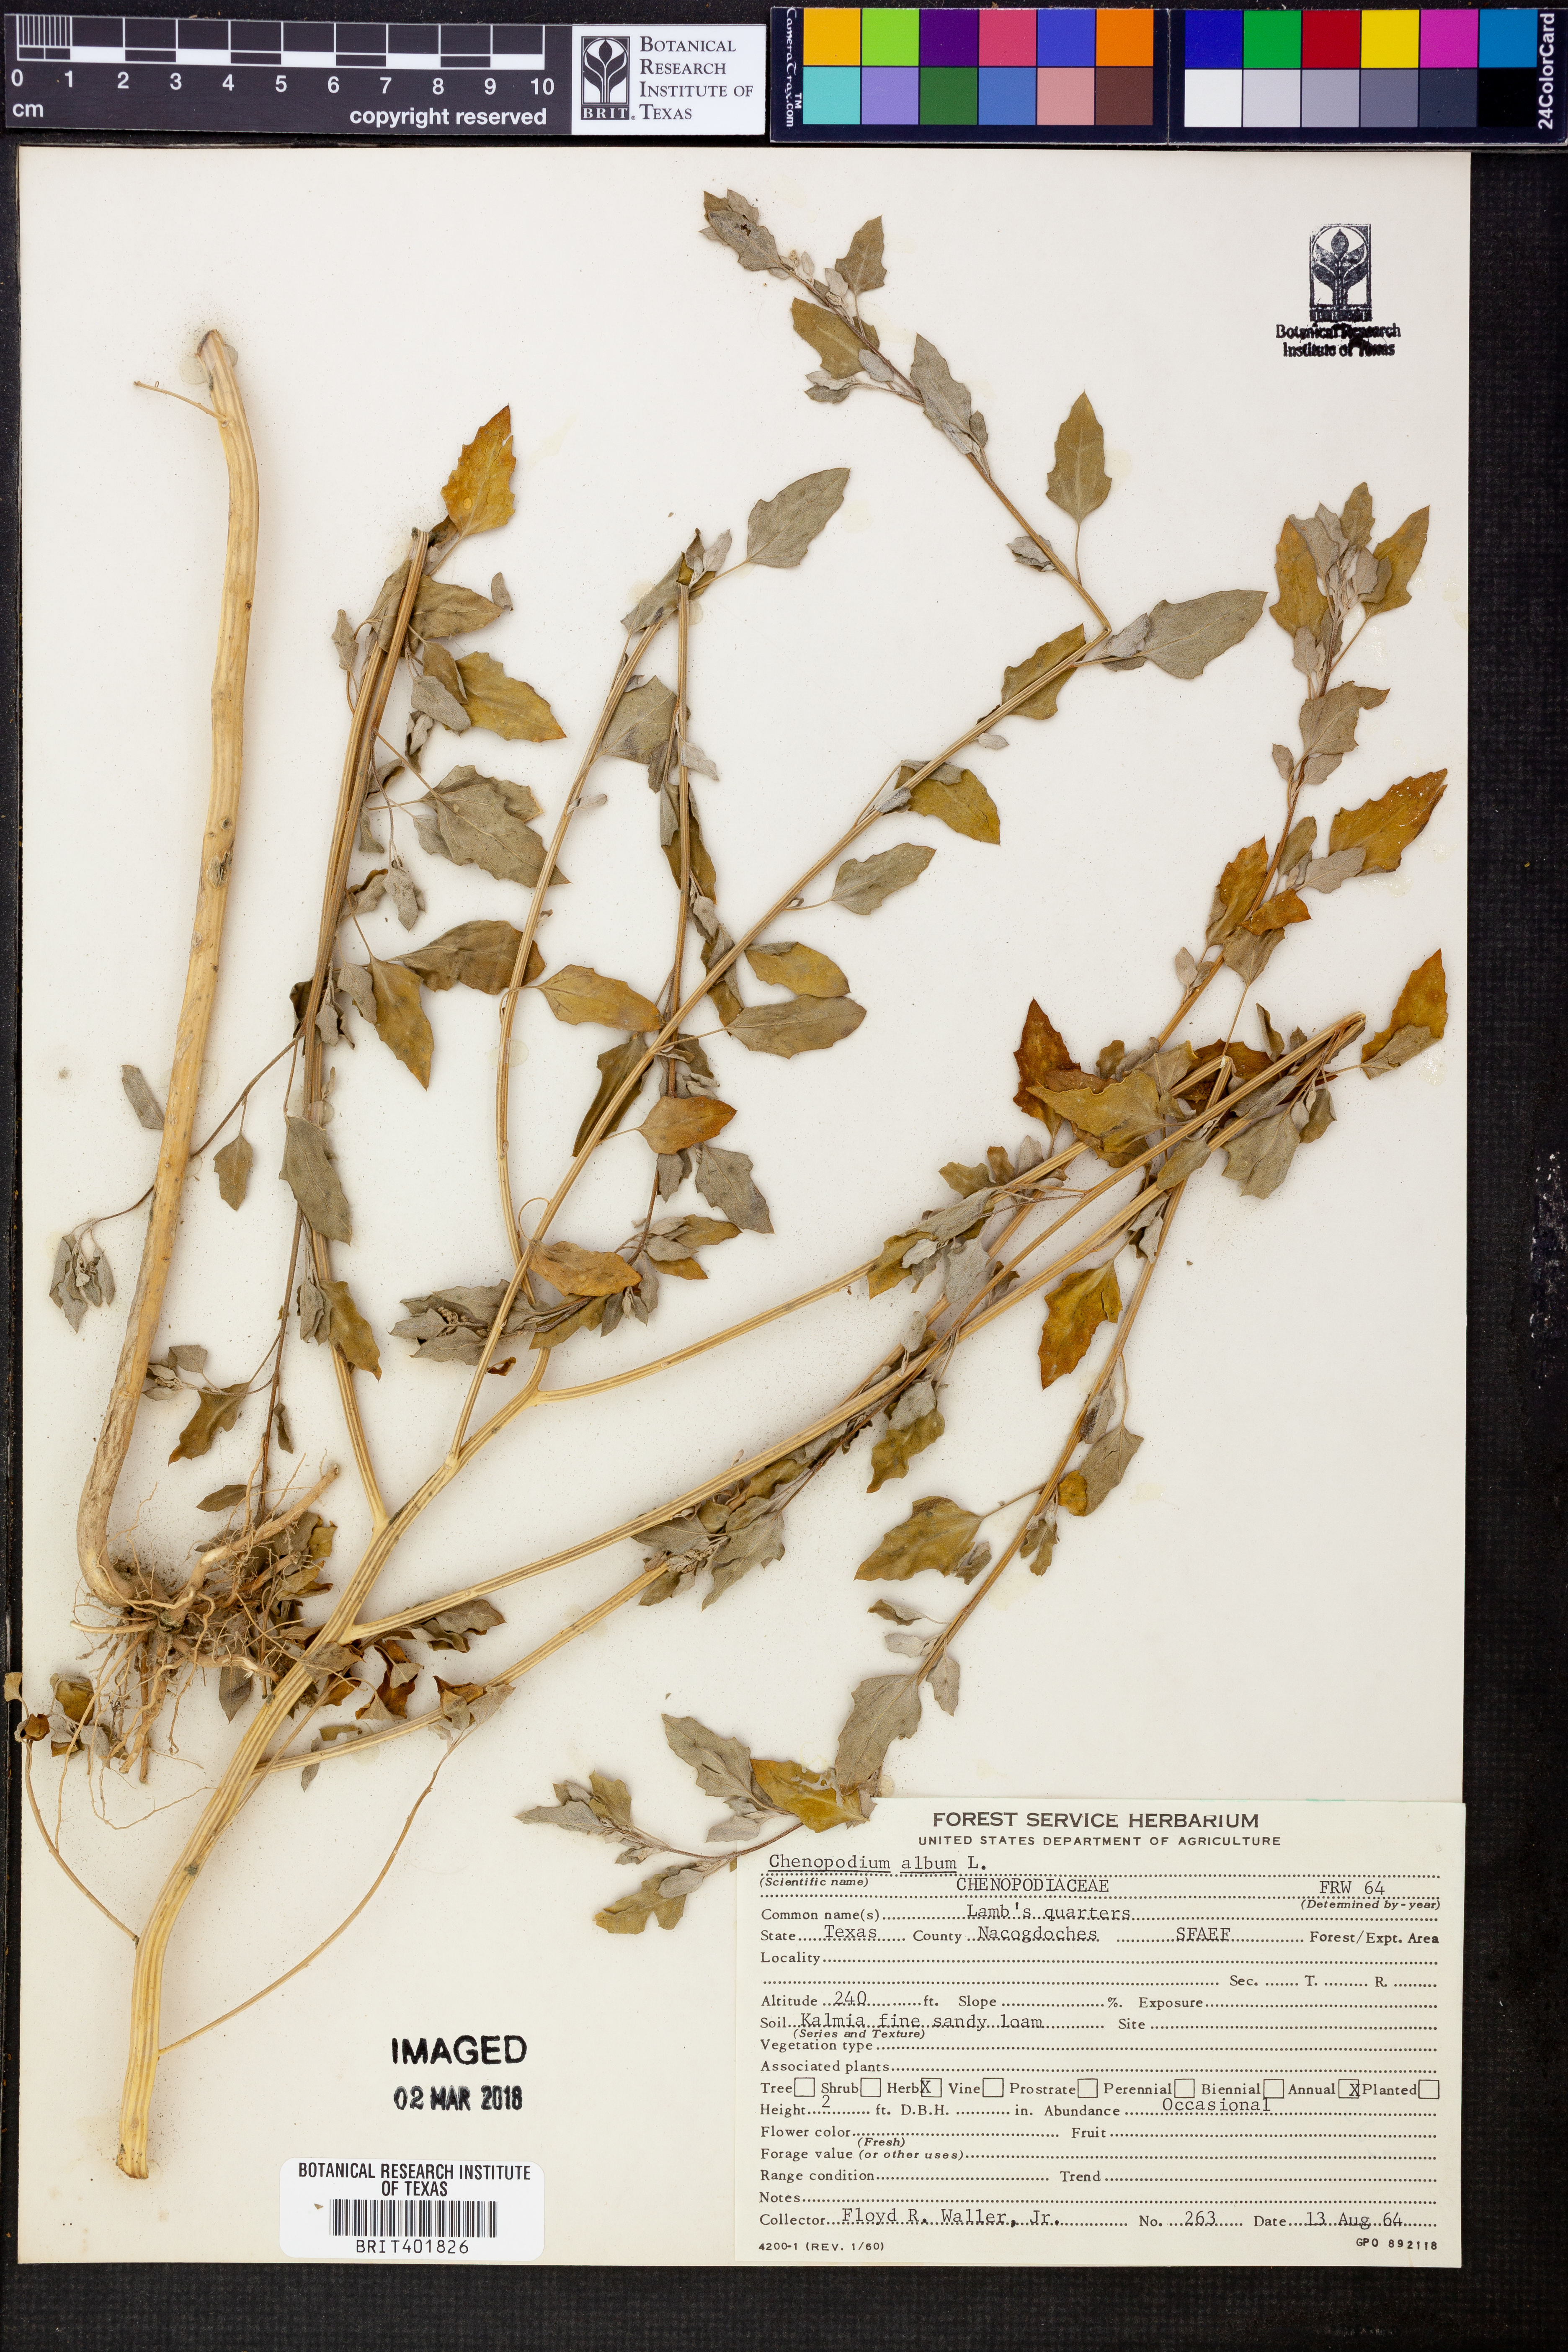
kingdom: Plantae
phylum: Tracheophyta
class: Magnoliopsida
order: Caryophyllales
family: Amaranthaceae
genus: Chenopodium
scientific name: Chenopodium album
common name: Fat-hen
